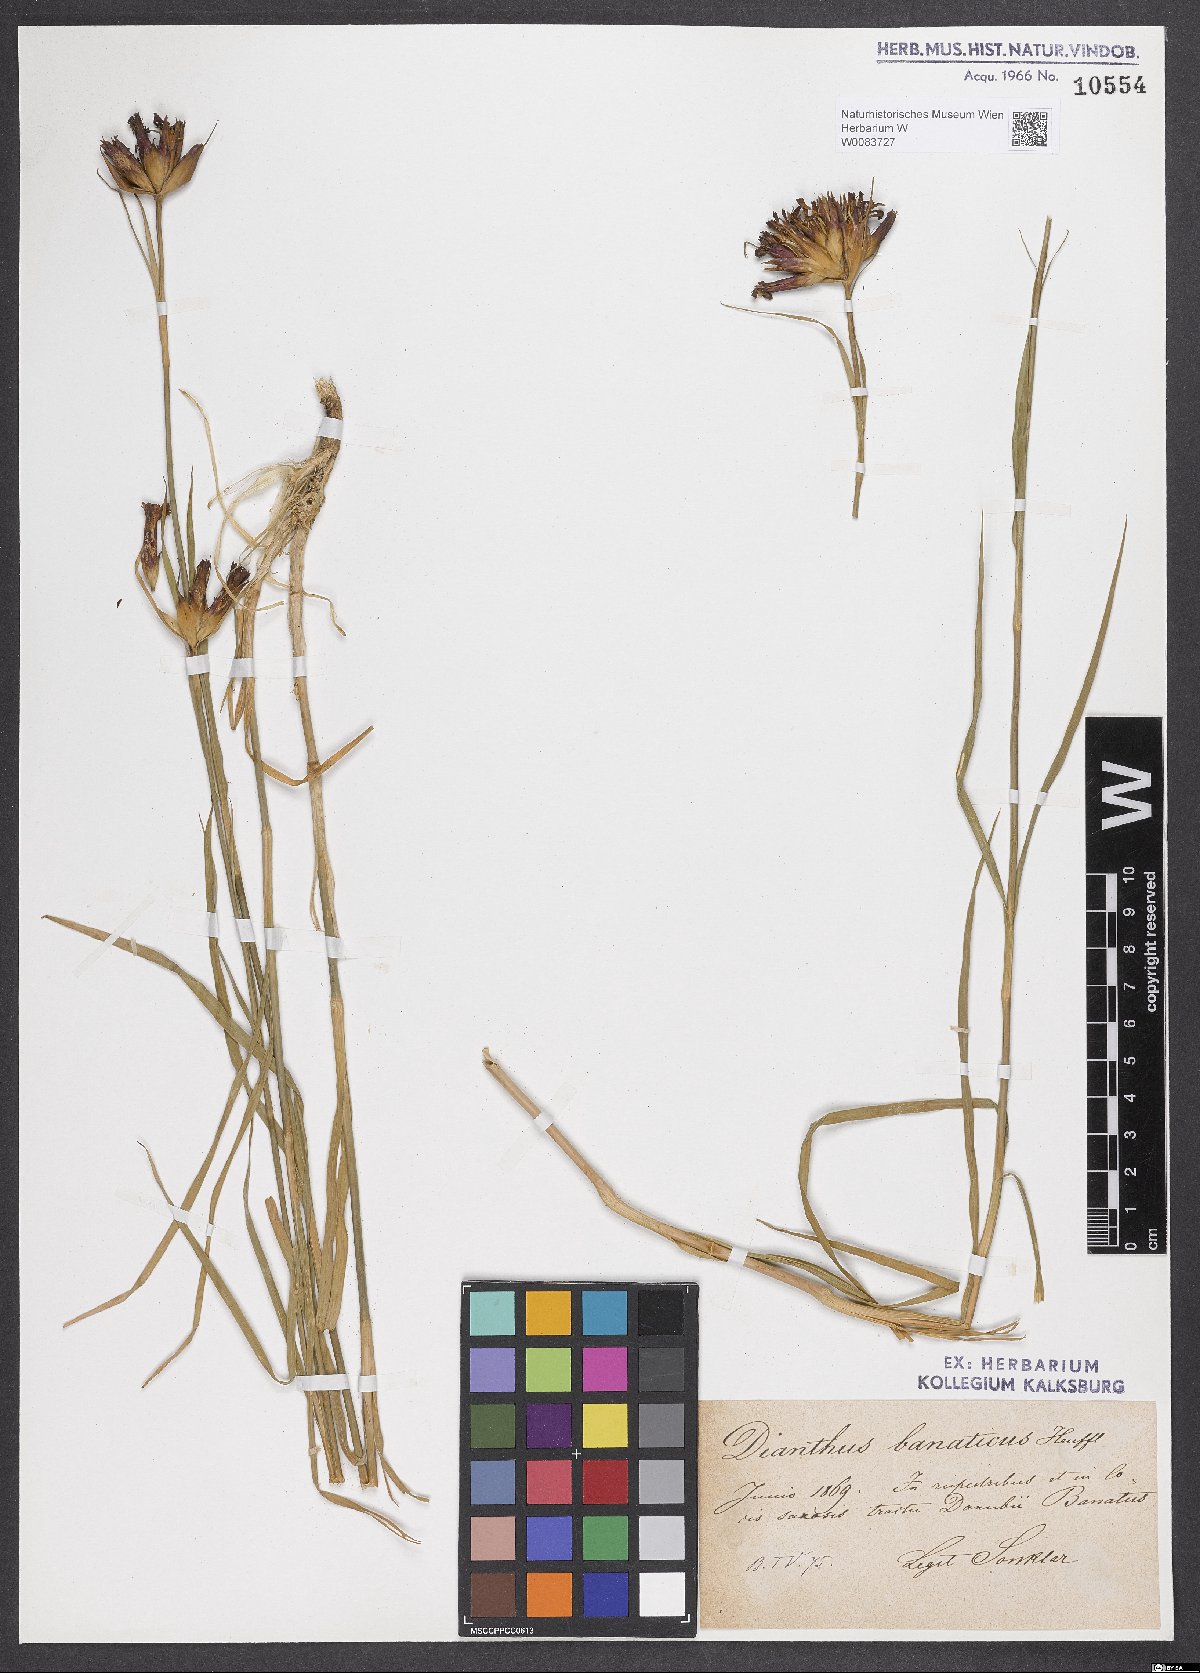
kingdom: Plantae
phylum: Tracheophyta
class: Magnoliopsida
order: Caryophyllales
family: Caryophyllaceae
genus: Dianthus
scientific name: Dianthus giganteus
